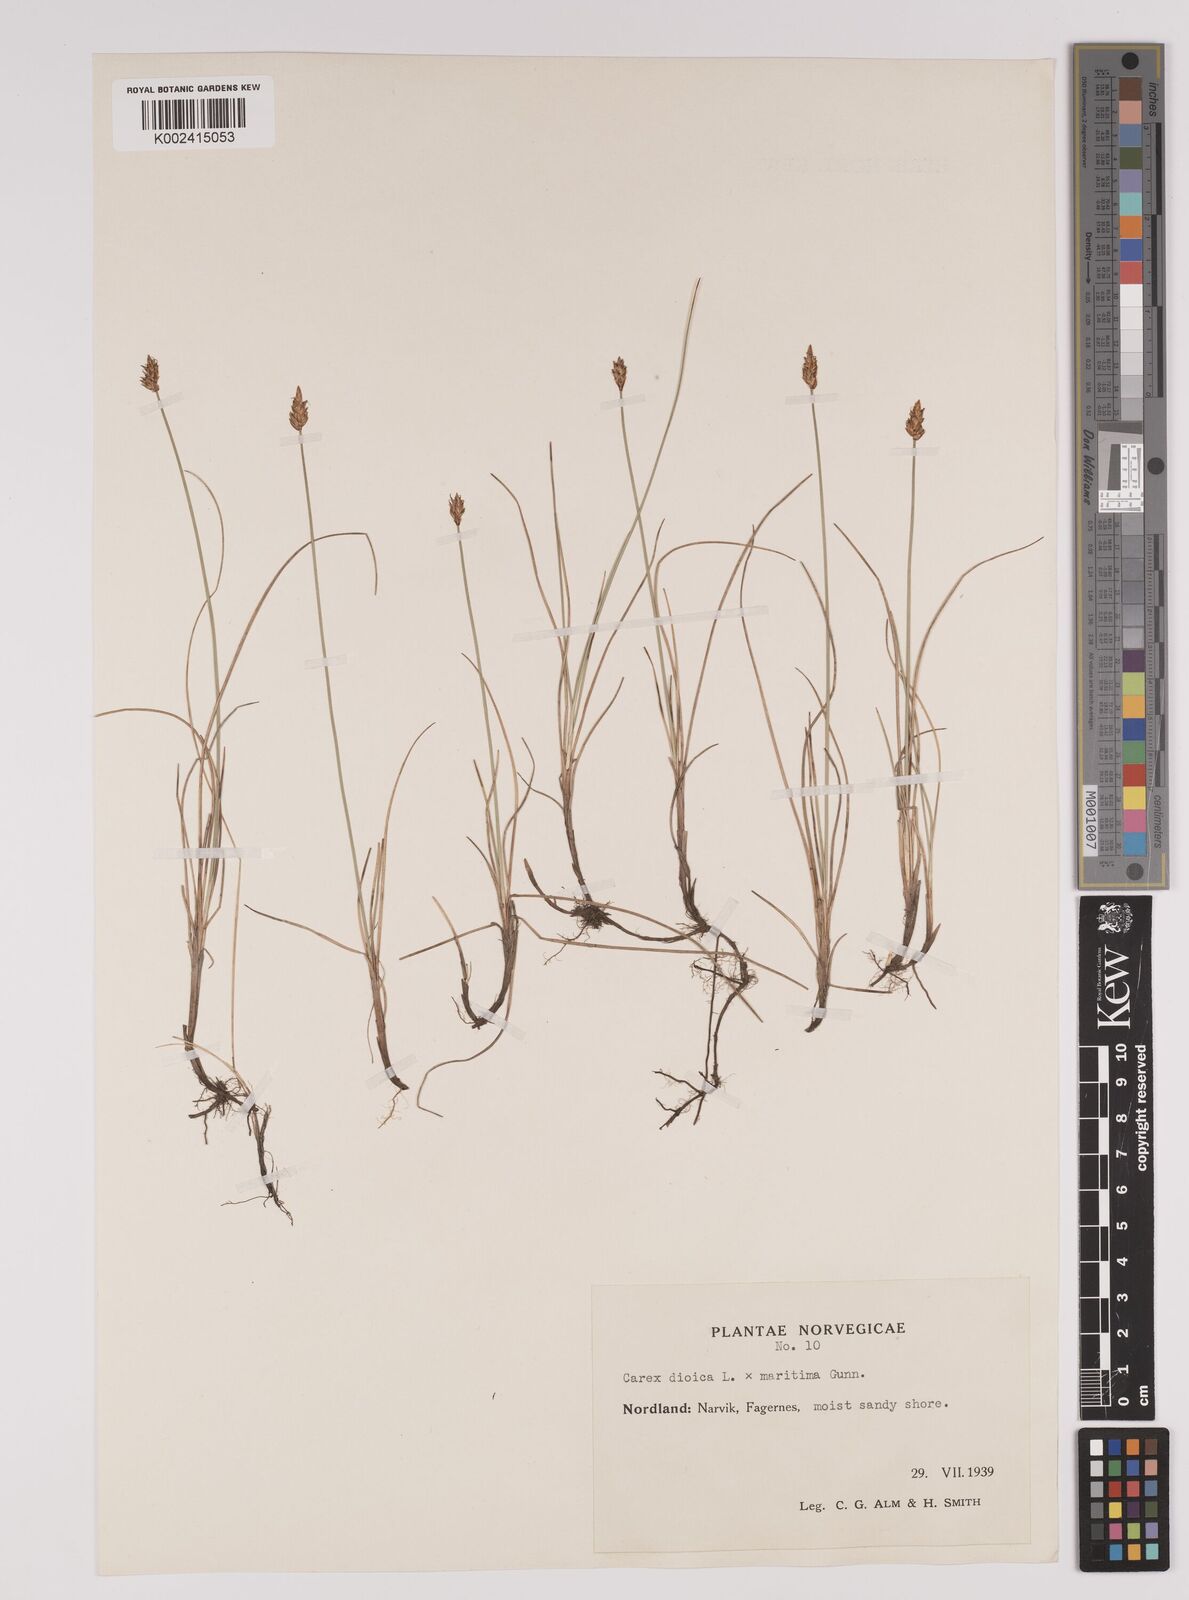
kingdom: Plantae
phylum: Tracheophyta
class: Liliopsida
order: Poales
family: Cyperaceae
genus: Carex
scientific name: Carex dioica
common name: Dioecious sedge
